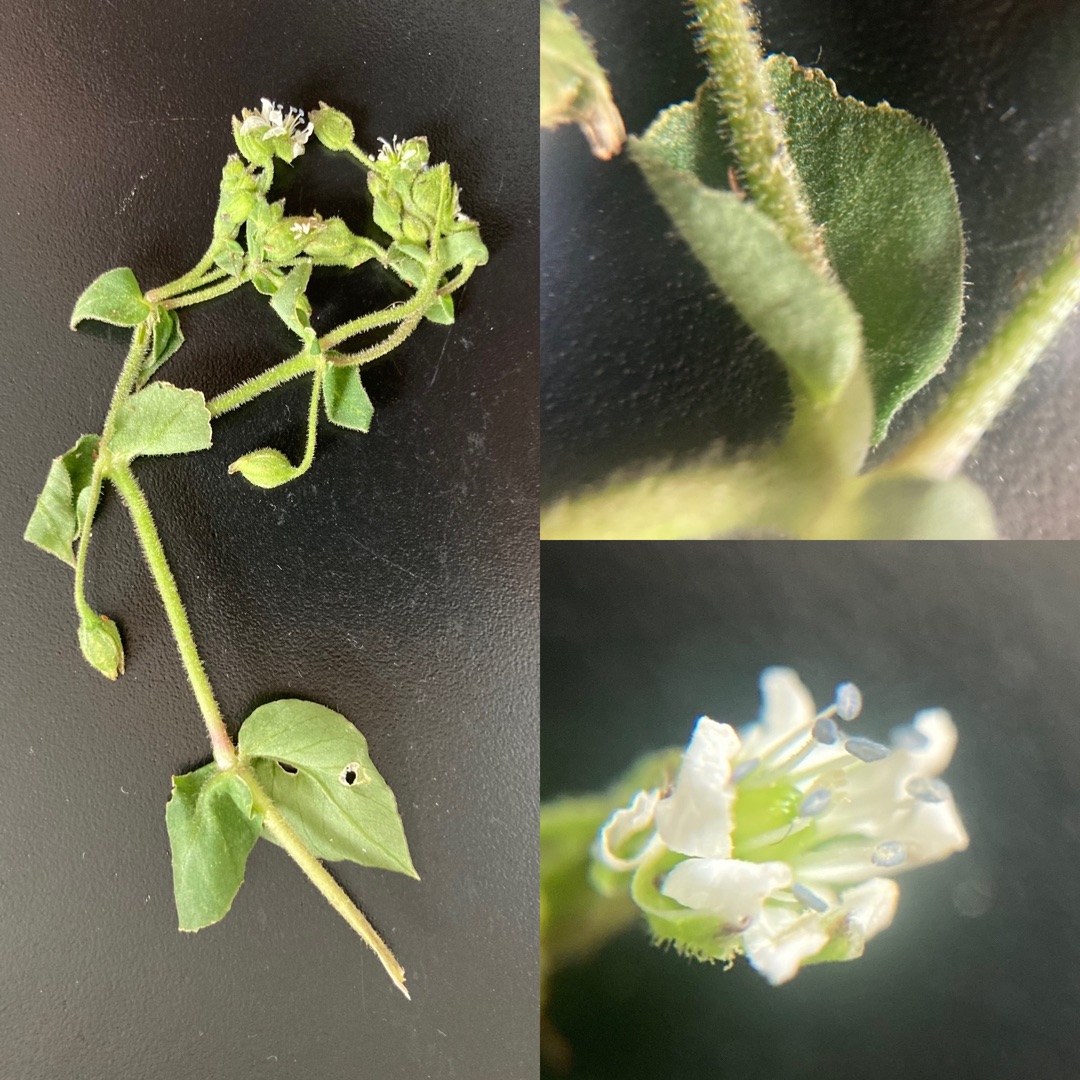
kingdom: Plantae
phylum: Tracheophyta
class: Magnoliopsida
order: Caryophyllales
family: Caryophyllaceae
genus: Stellaria
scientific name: Stellaria aquatica
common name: Kløvkrone
